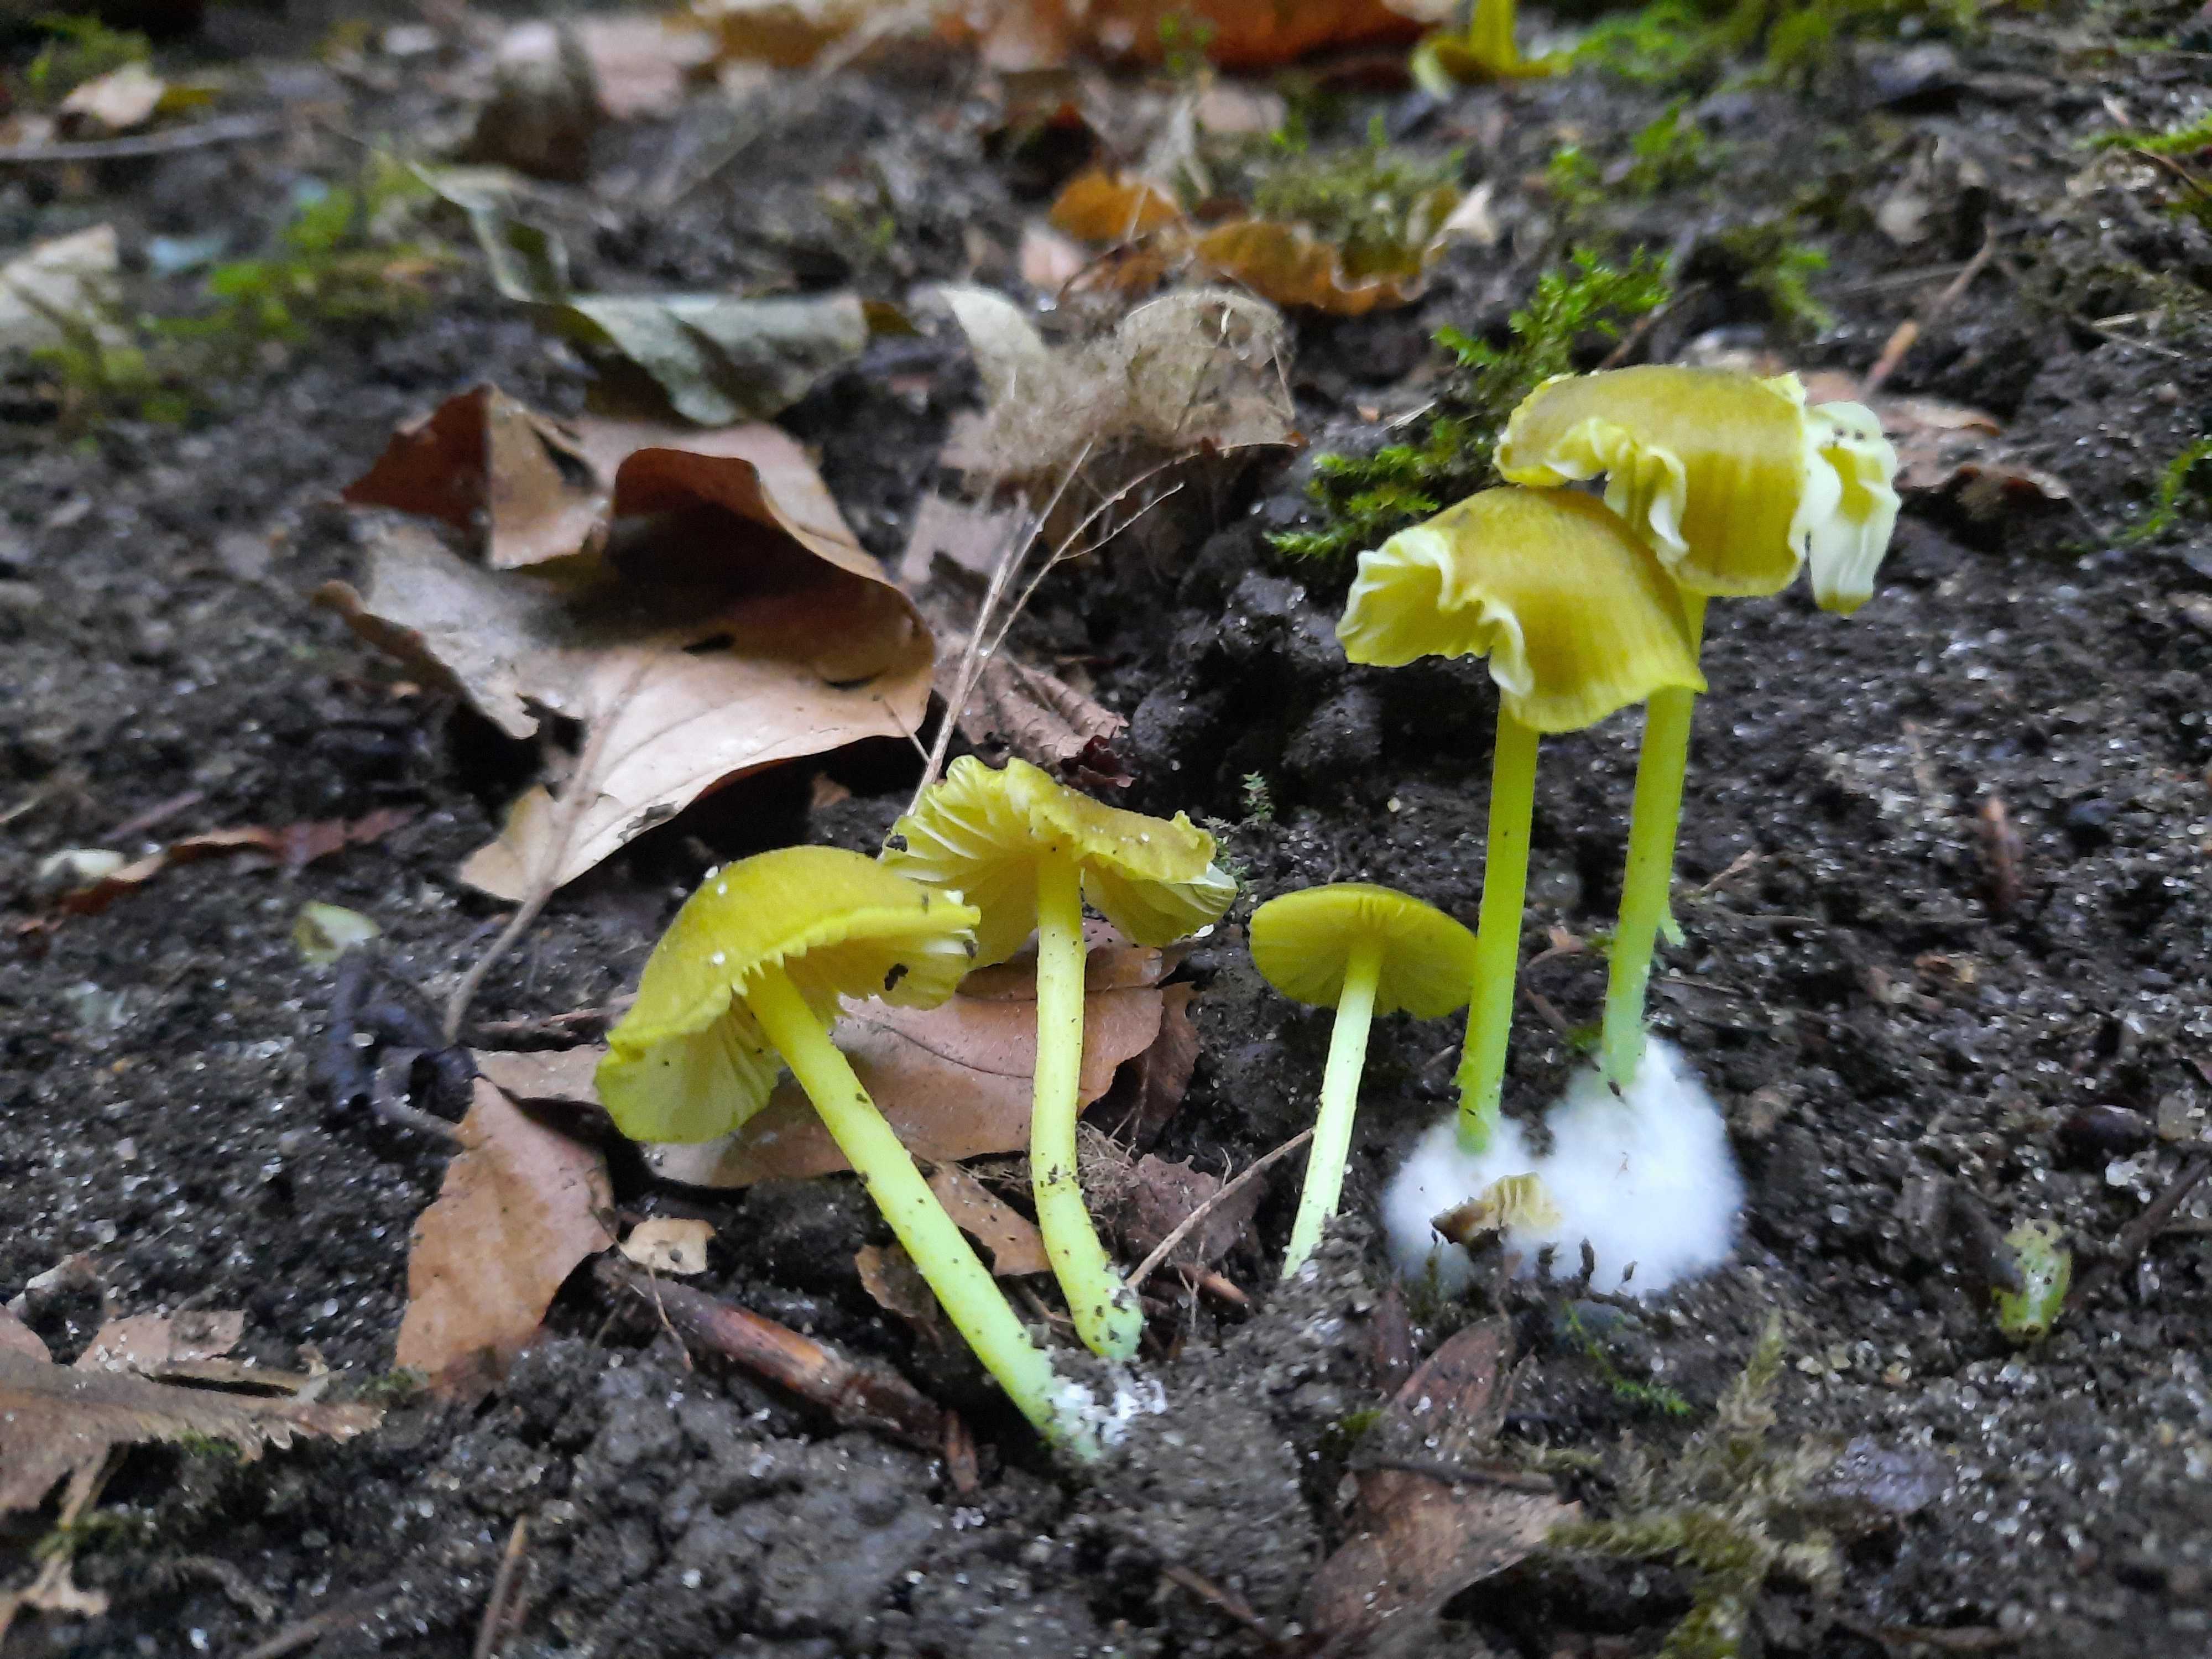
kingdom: Fungi
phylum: Basidiomycota
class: Agaricomycetes
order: Agaricales
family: Entolomataceae
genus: Entoloma
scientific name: Entoloma incanum
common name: grøngul rødblad
